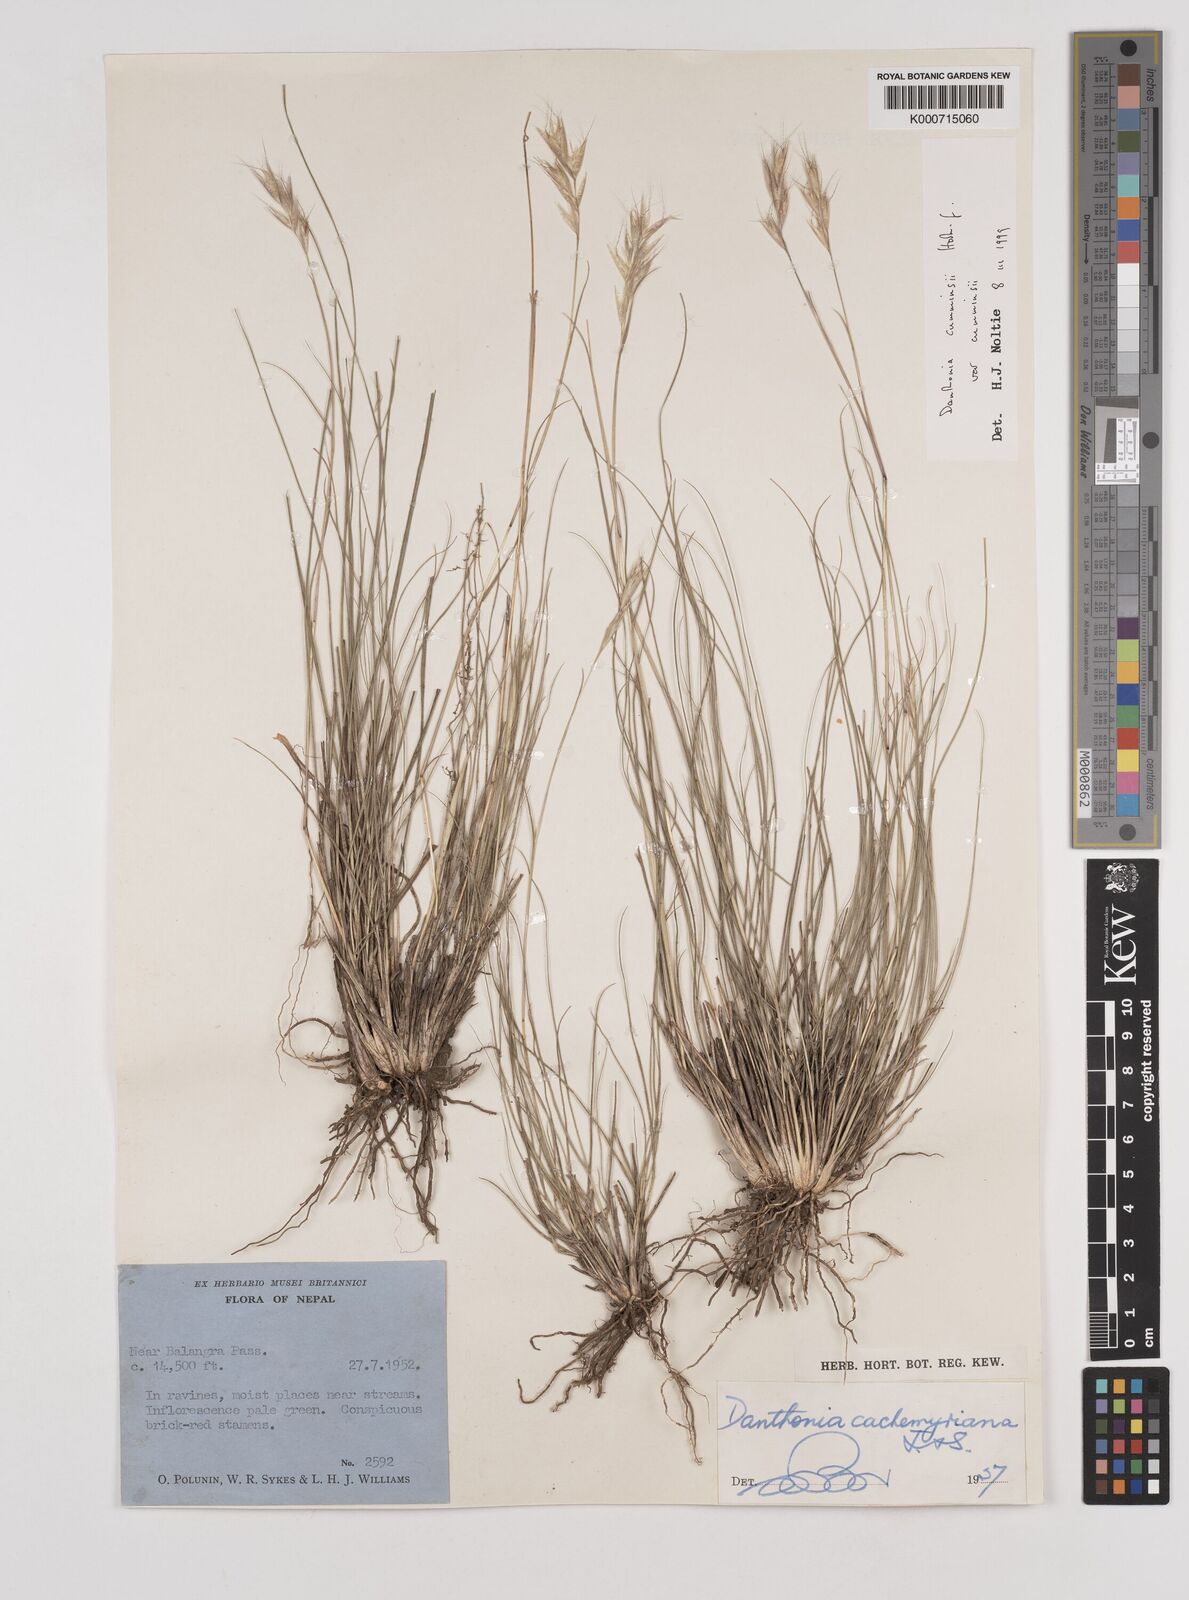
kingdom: Plantae
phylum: Tracheophyta
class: Liliopsida
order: Poales
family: Poaceae
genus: Rytidosperma
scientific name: Rytidosperma
